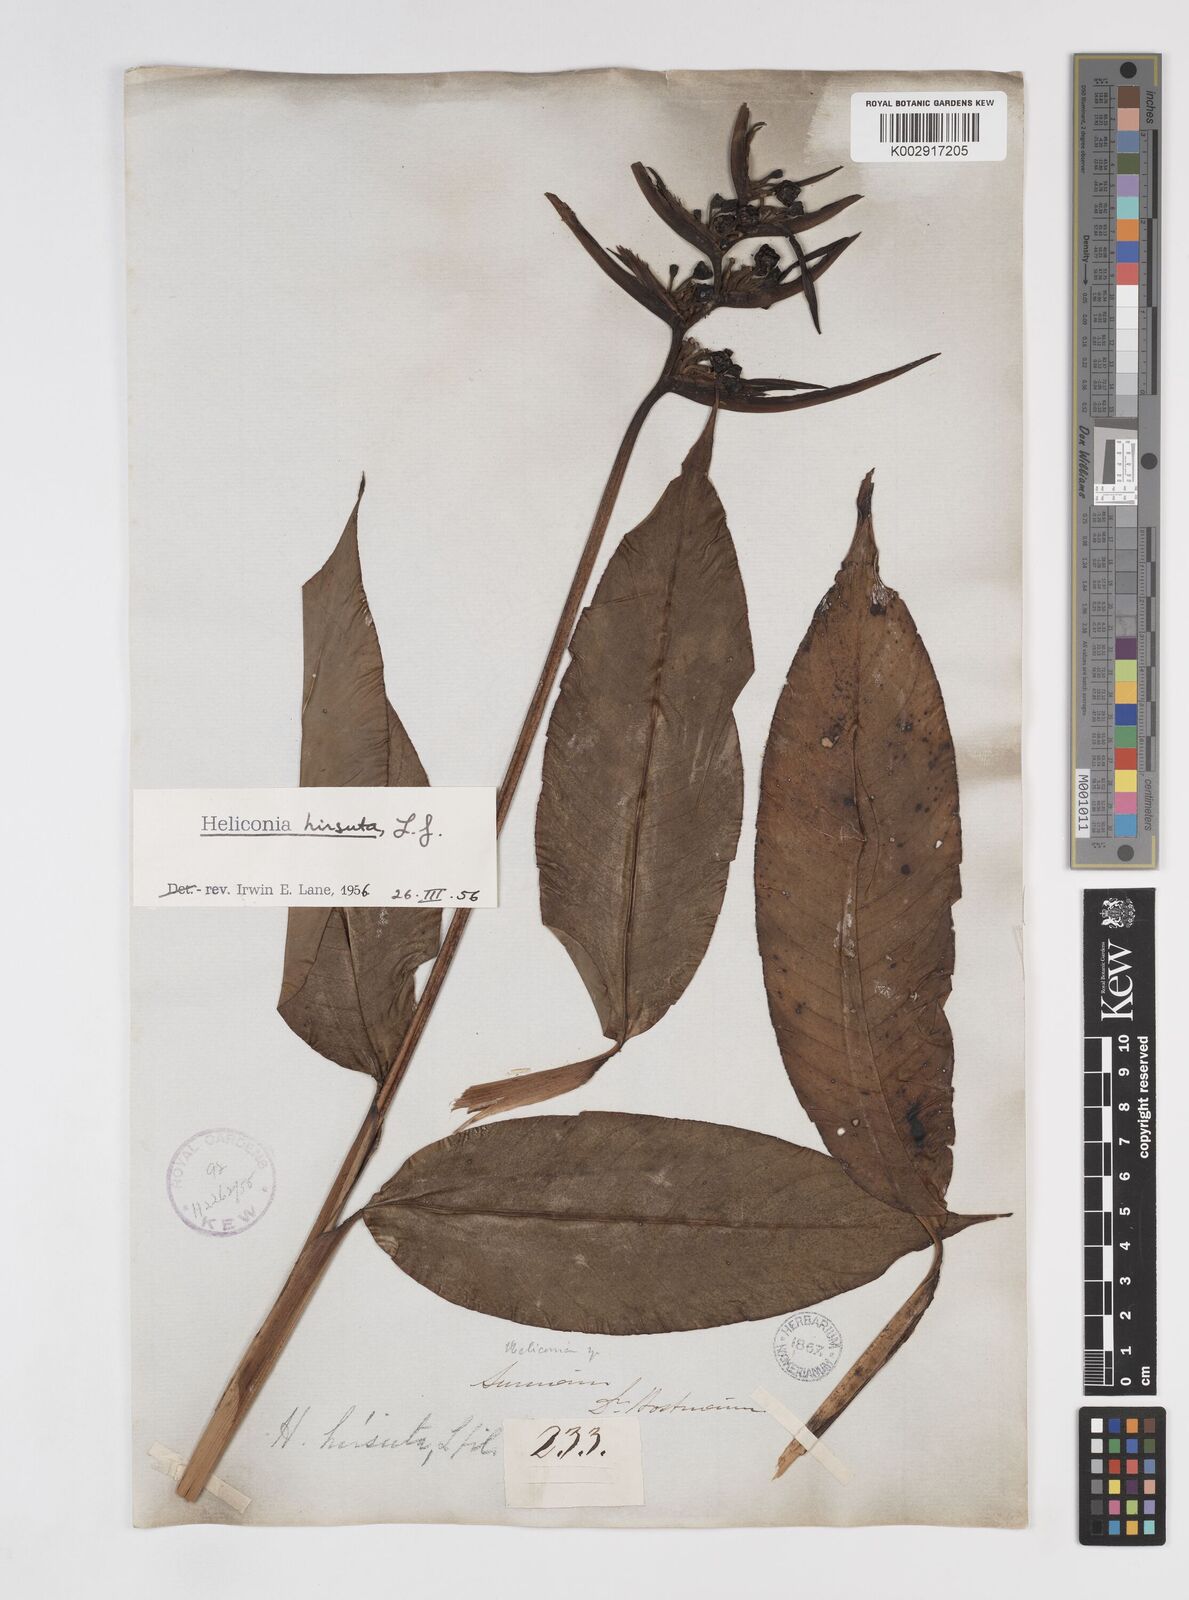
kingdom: Plantae
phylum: Tracheophyta
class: Liliopsida
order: Zingiberales
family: Heliconiaceae
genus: Heliconia
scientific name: Heliconia hirsuta
